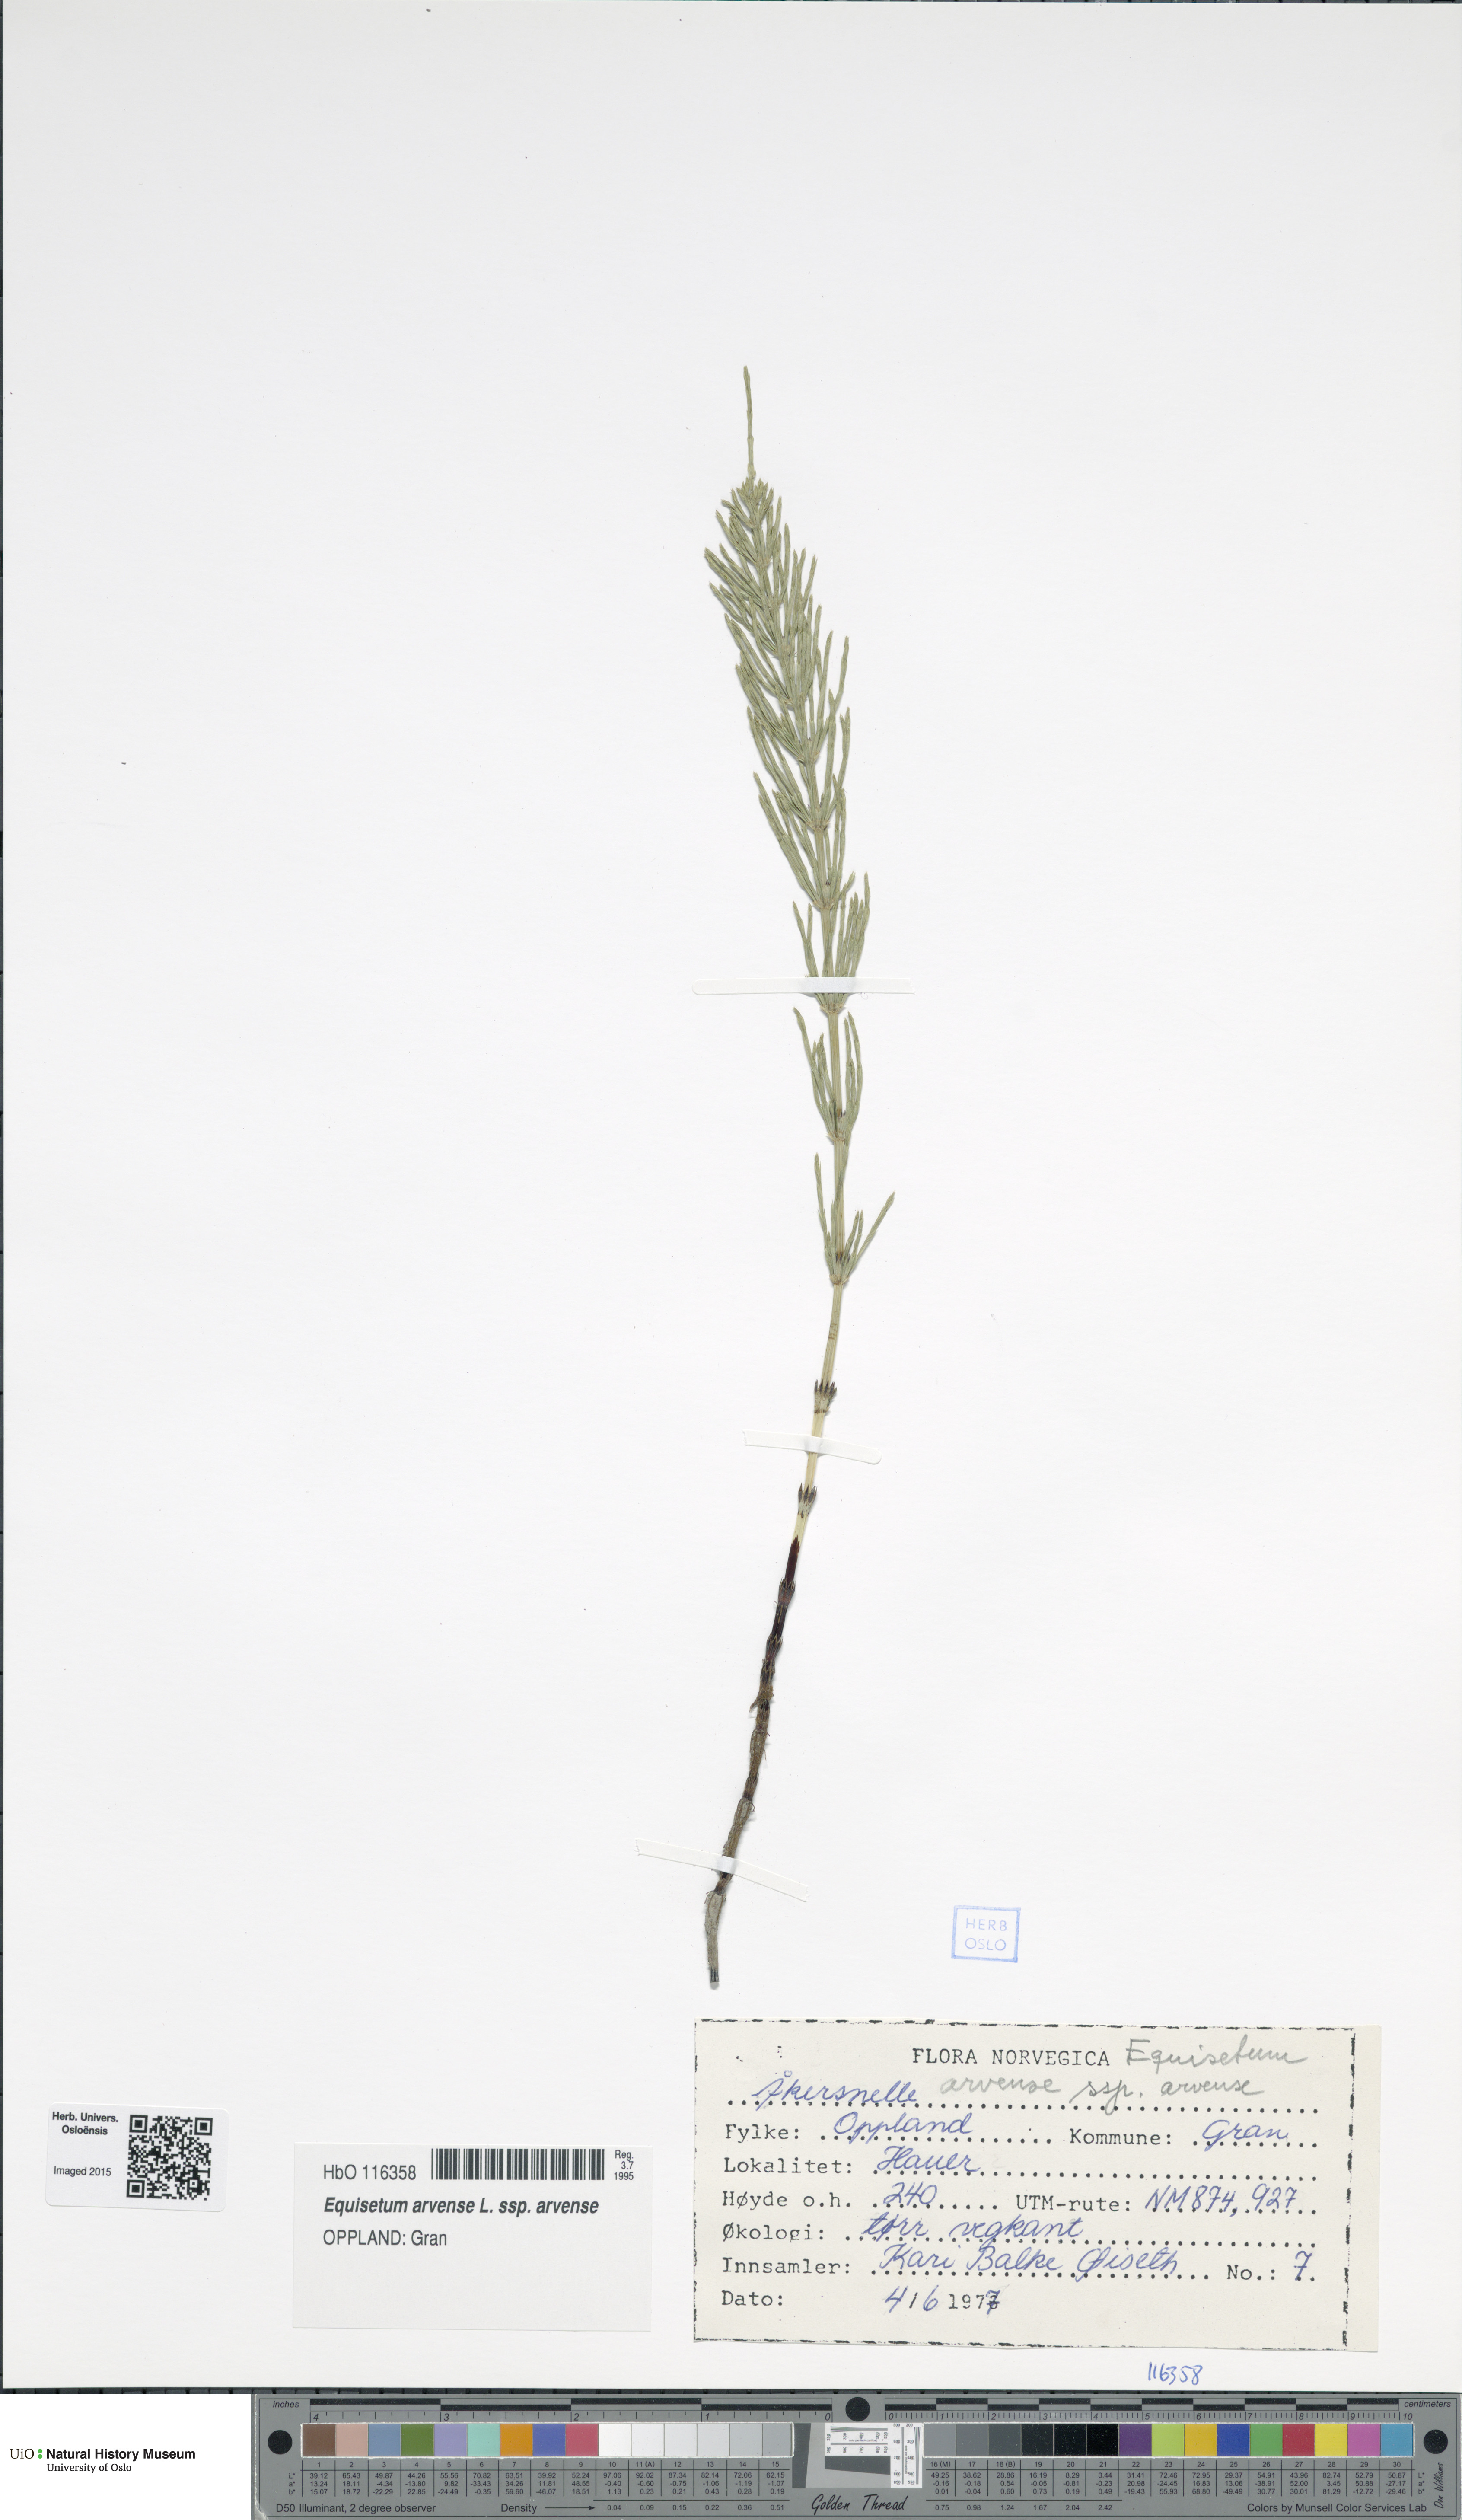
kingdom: Plantae
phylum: Tracheophyta
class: Polypodiopsida
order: Equisetales
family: Equisetaceae
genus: Equisetum
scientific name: Equisetum arvense
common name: Field horsetail
